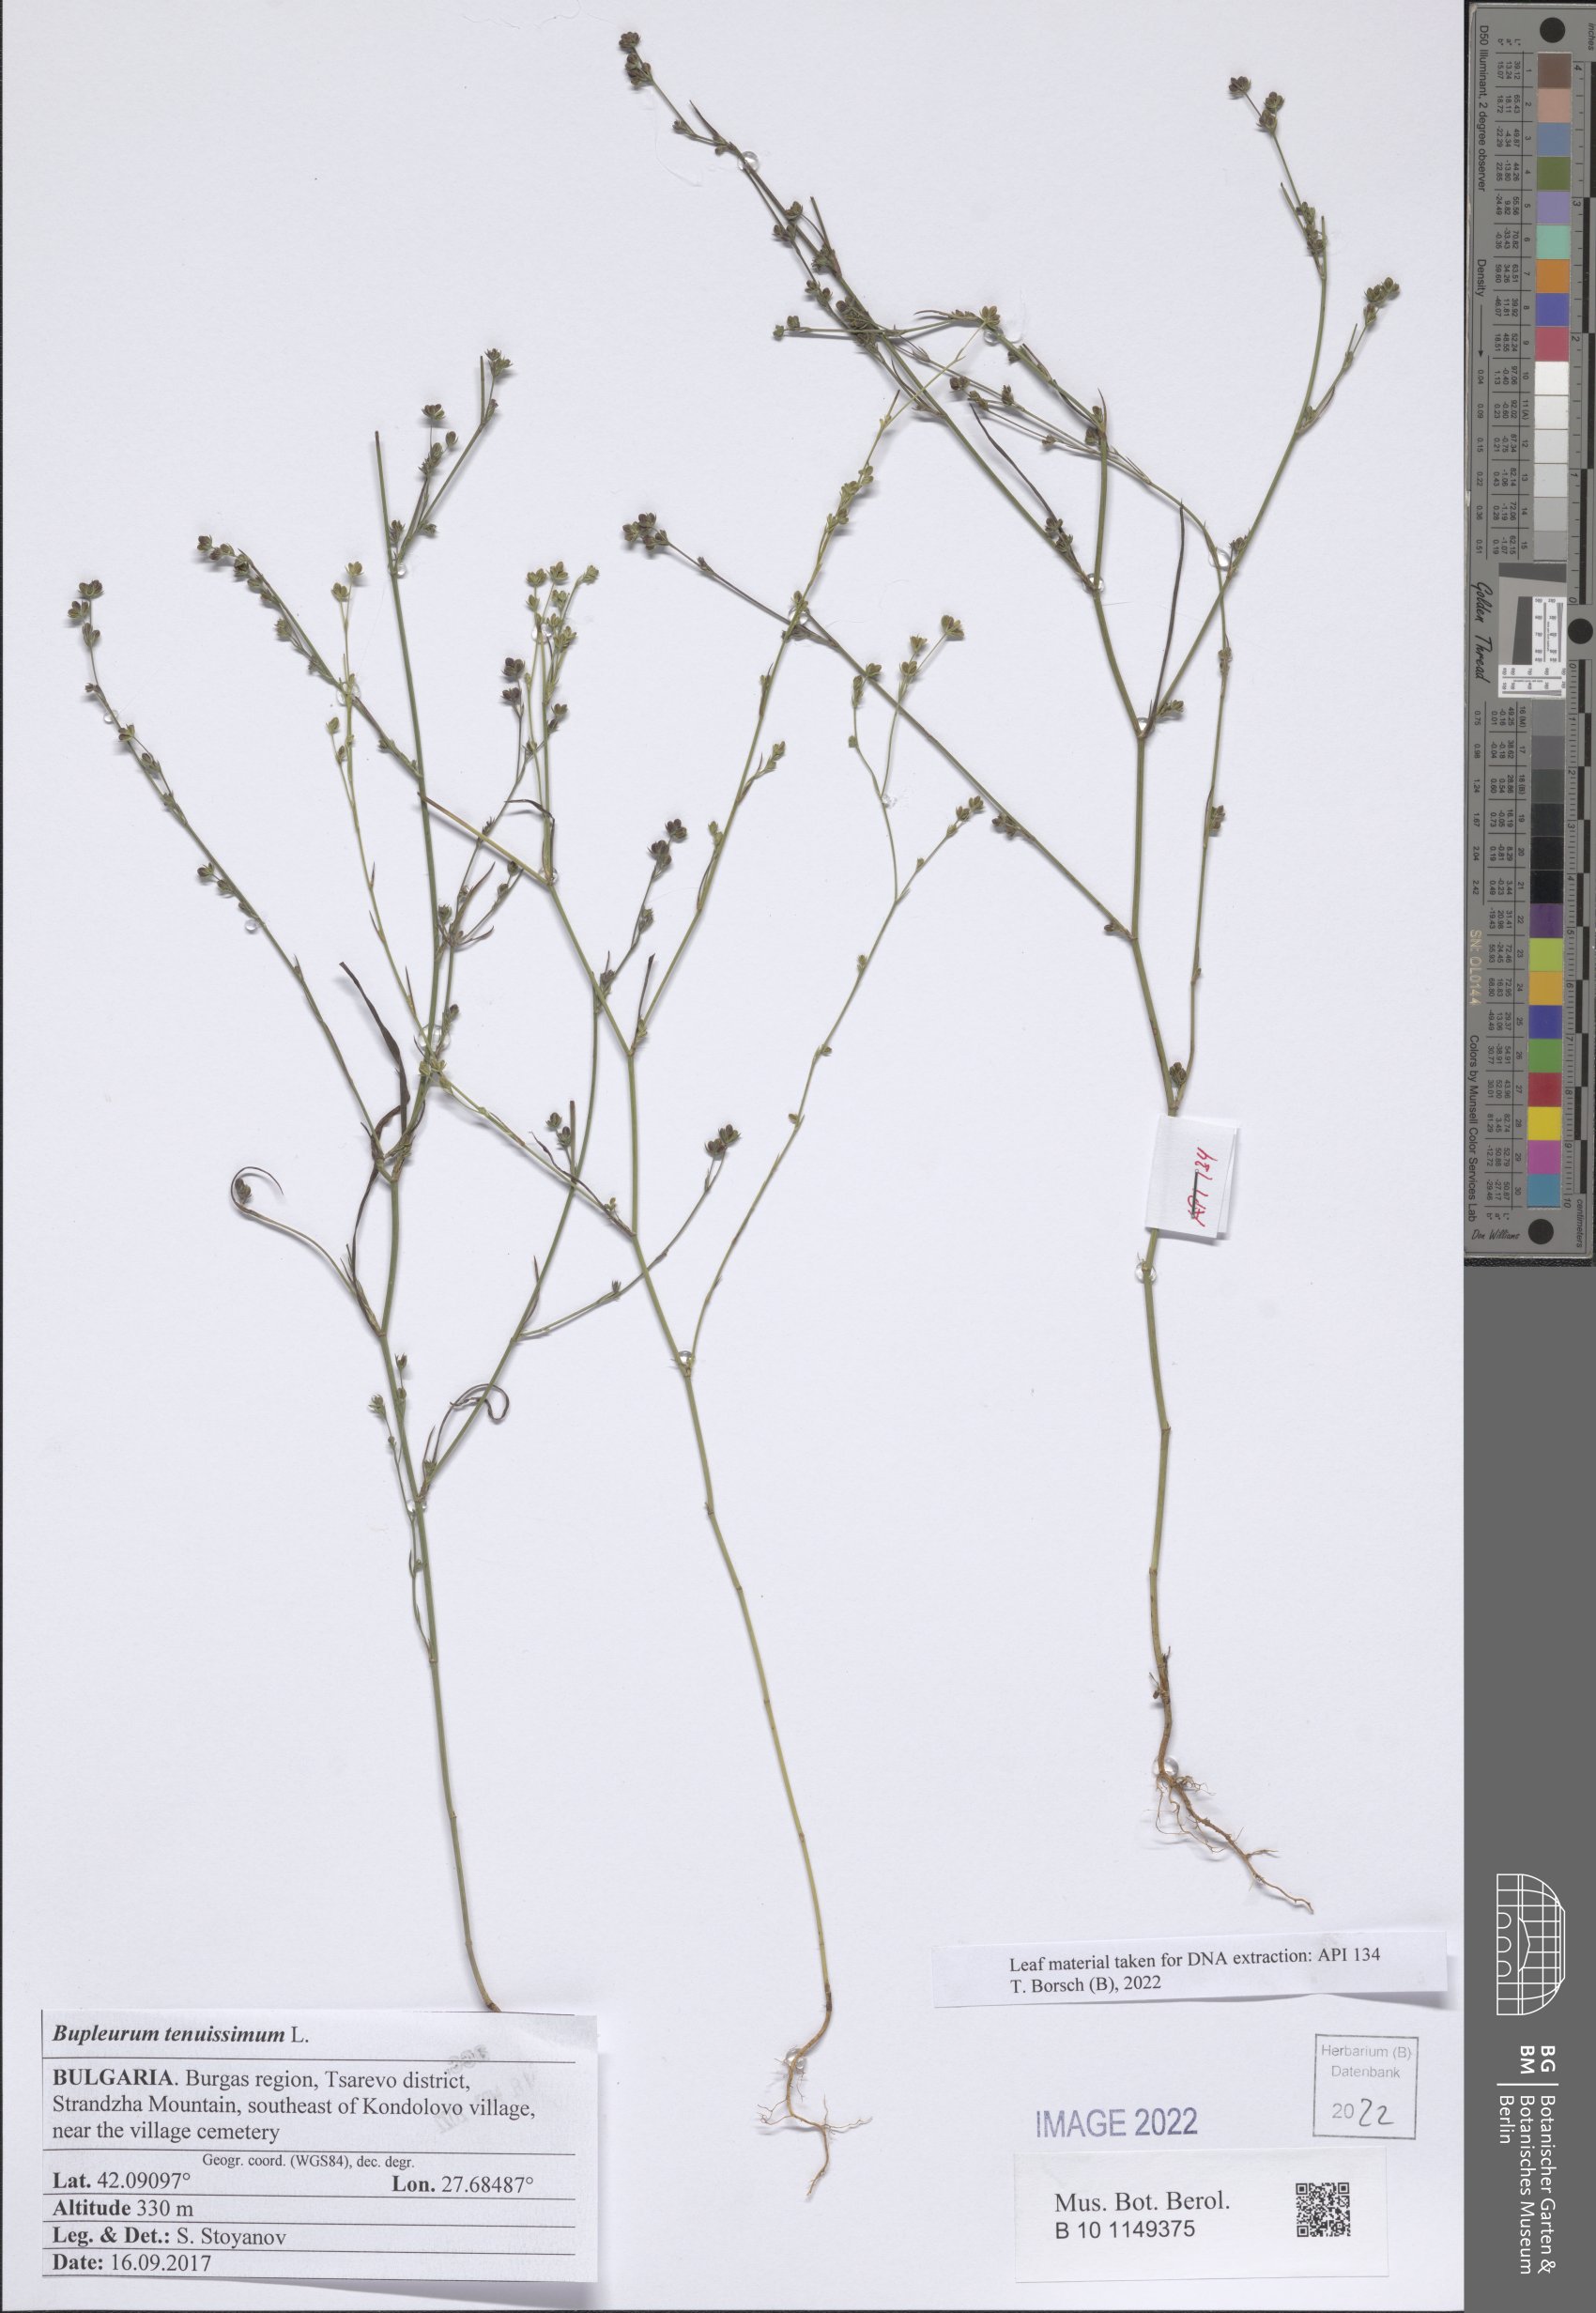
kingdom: Plantae
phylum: Tracheophyta
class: Magnoliopsida
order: Apiales
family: Apiaceae
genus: Bupleurum
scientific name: Bupleurum tenuissimum
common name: Slender hare's-ear
